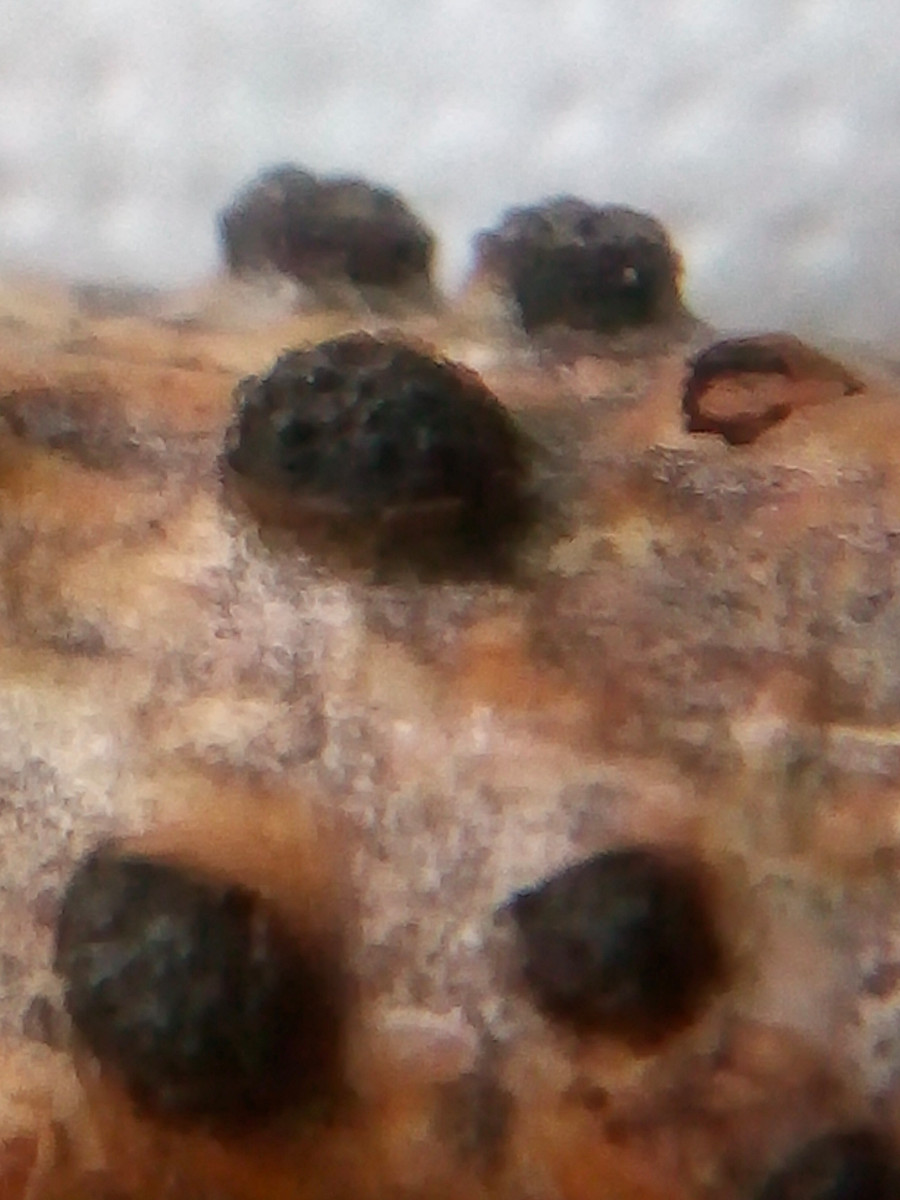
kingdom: Fungi
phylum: Ascomycota
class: Sordariomycetes
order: Xylariales
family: Diatrypaceae
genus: Diatrypella
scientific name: Diatrypella quercina
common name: ege-kulskorpe
